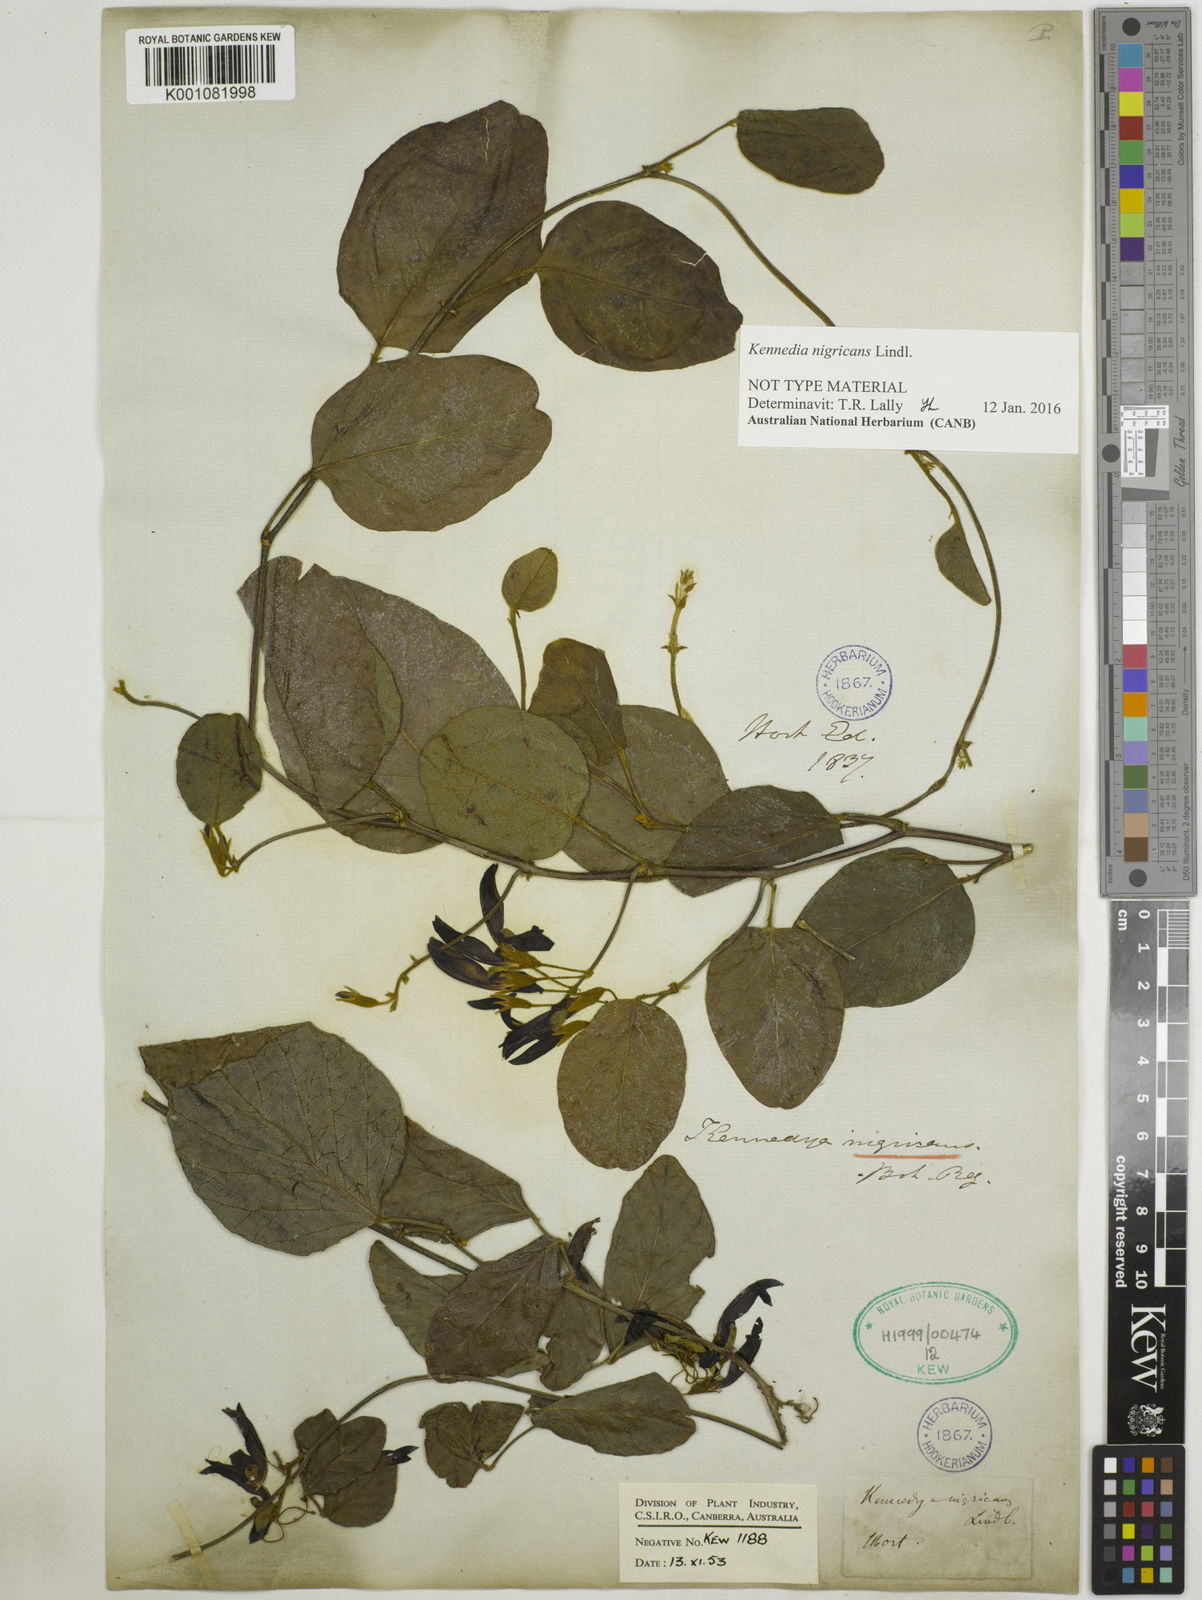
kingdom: Plantae
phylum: Tracheophyta
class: Magnoliopsida
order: Fabales
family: Fabaceae
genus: Kennedia
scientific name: Kennedia nigricans
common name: Black-bean
